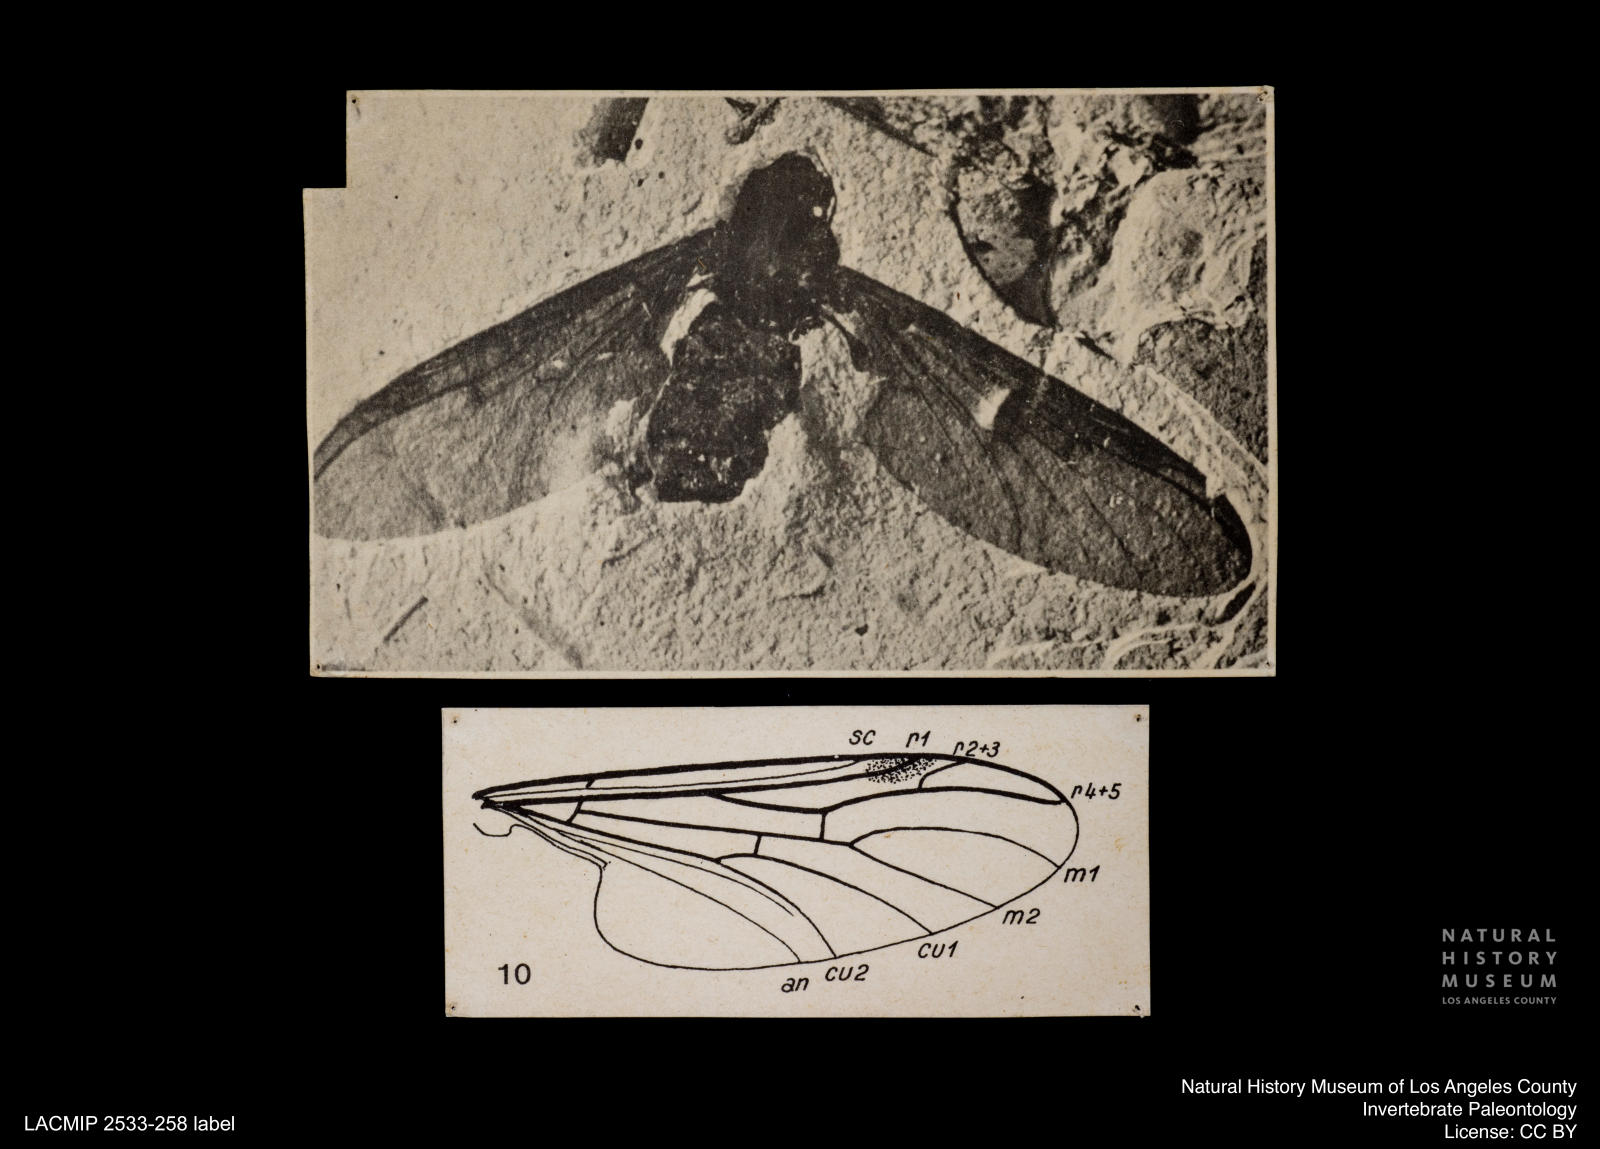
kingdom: Animalia
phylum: Arthropoda
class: Insecta
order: Diptera
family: Bibionidae
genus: Plecia
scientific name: Plecia
